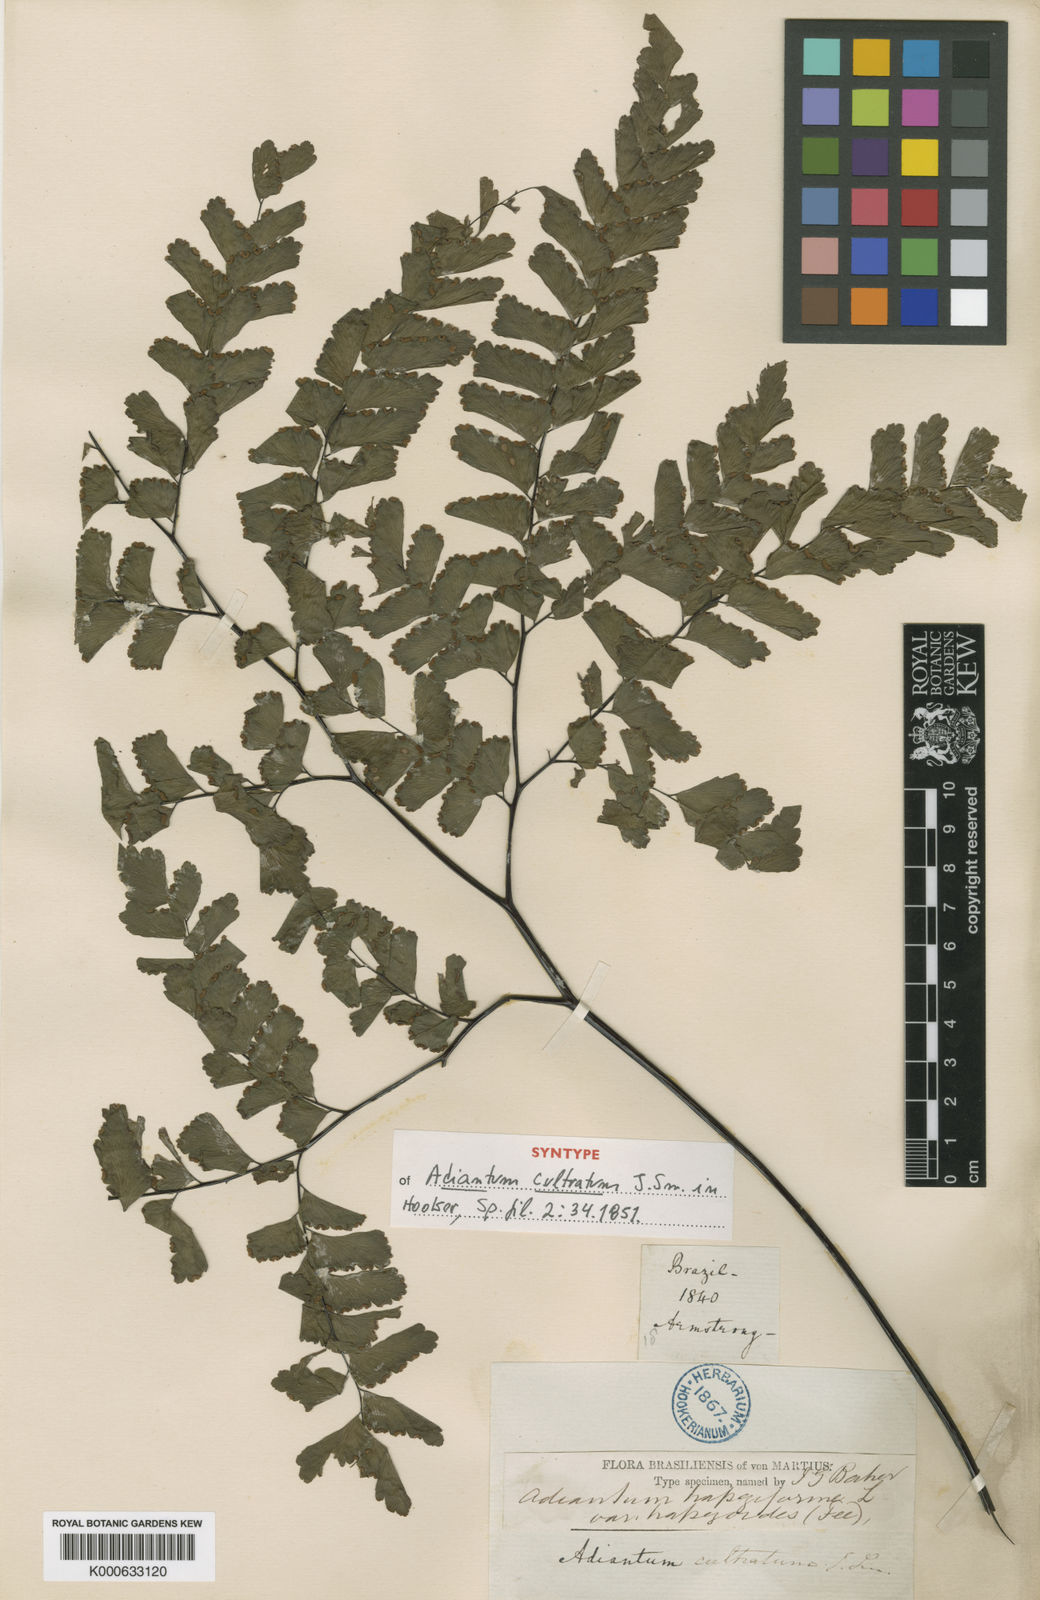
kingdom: Plantae
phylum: Tracheophyta
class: Polypodiopsida
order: Polypodiales
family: Pteridaceae
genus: Adiantum
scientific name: Adiantum abscissum
